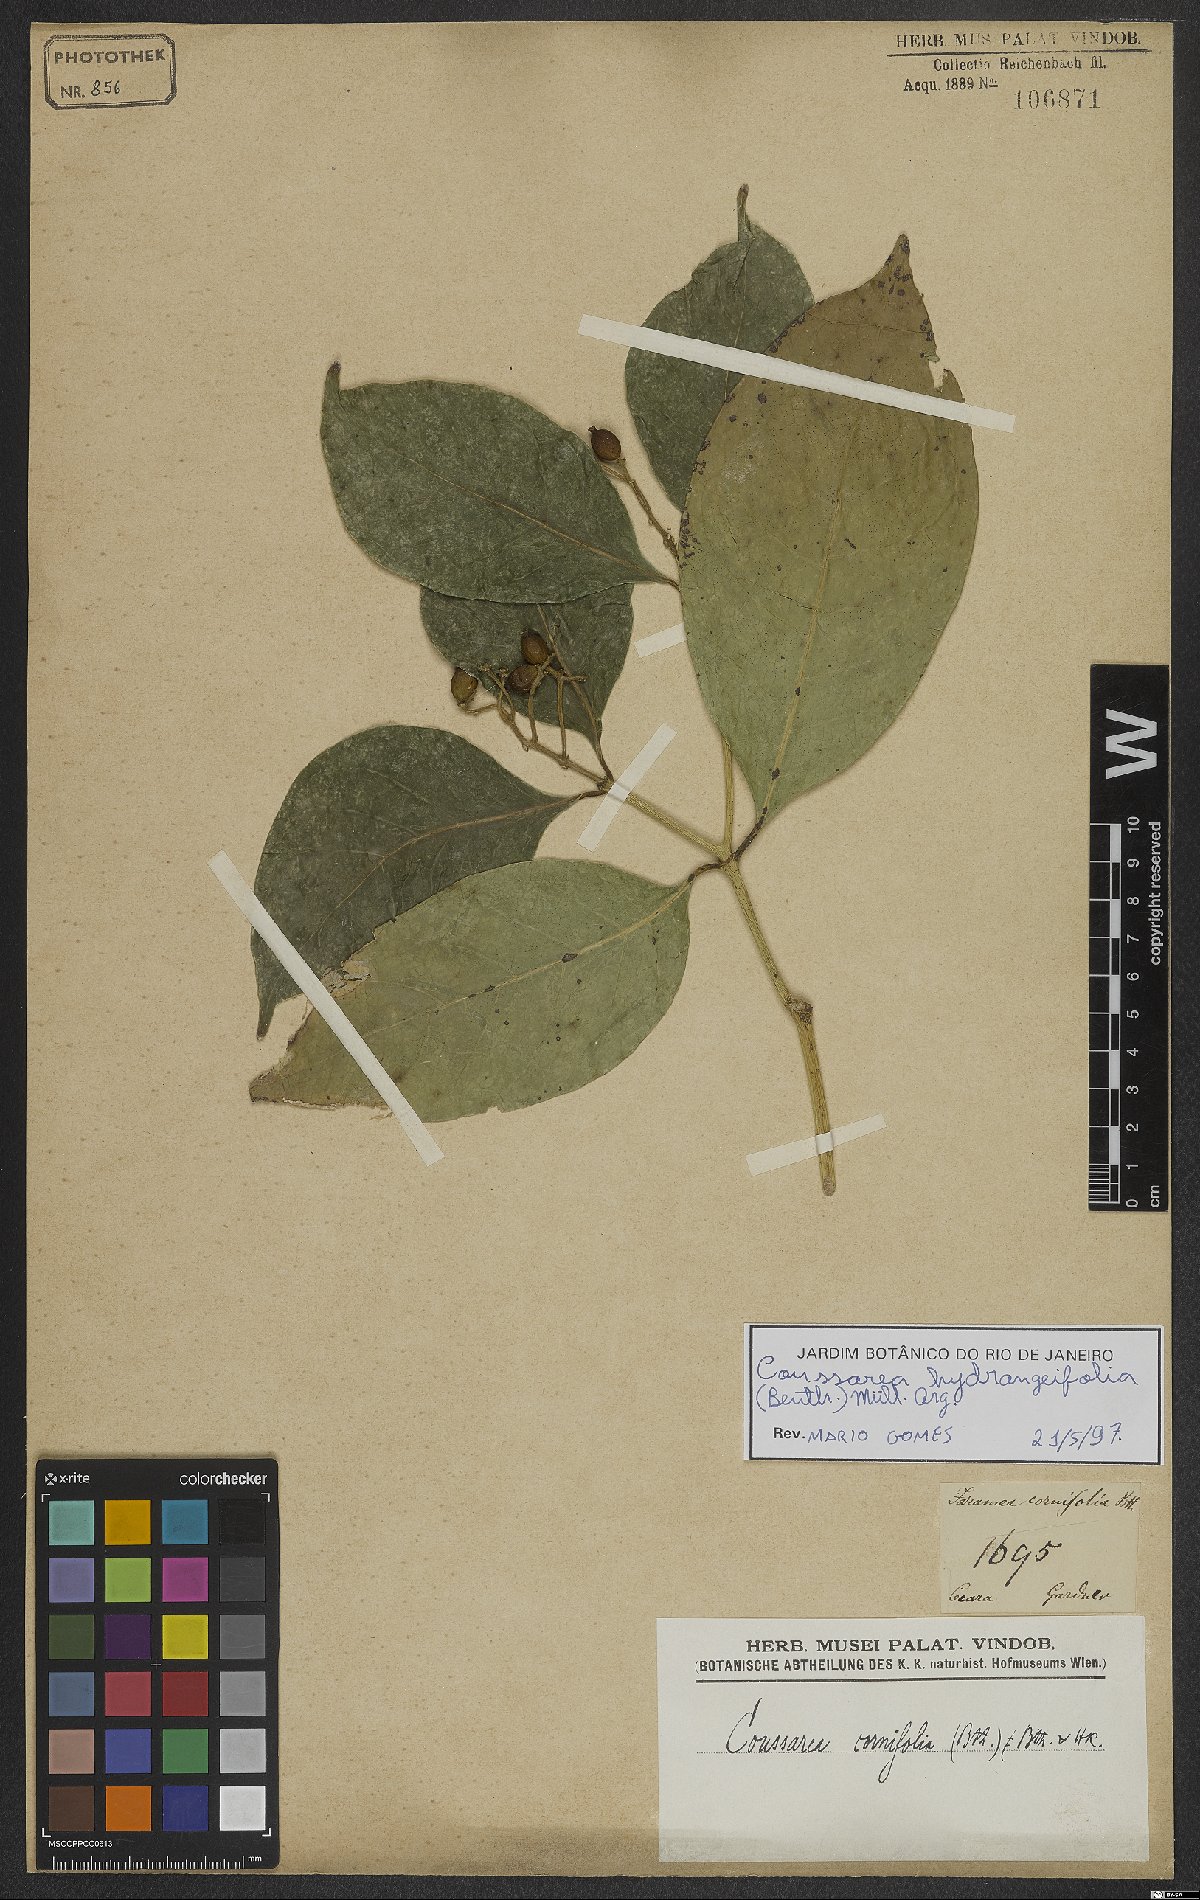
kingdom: Plantae
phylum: Tracheophyta
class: Magnoliopsida
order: Gentianales
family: Rubiaceae
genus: Coussarea
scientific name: Coussarea hydrangeifolia
